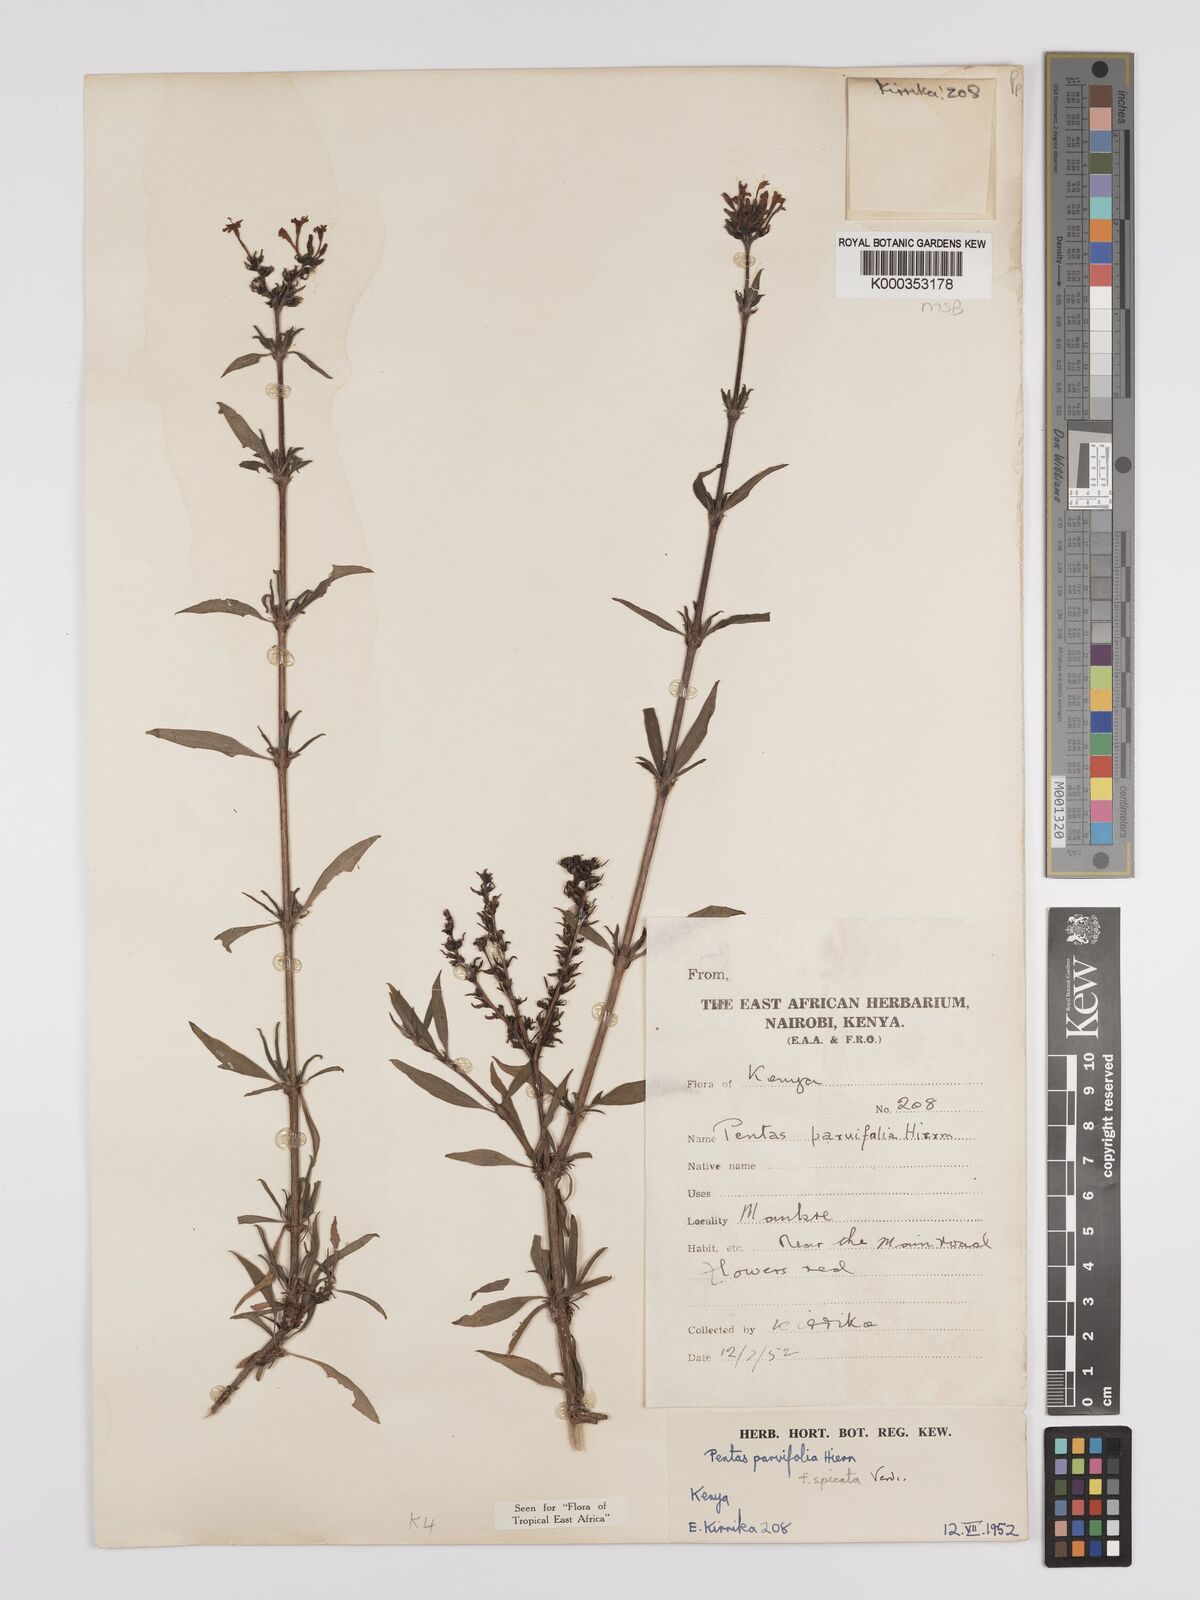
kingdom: Plantae
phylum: Tracheophyta
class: Magnoliopsida
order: Gentianales
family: Rubiaceae
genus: Rhodopentas
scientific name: Rhodopentas parvifolia
